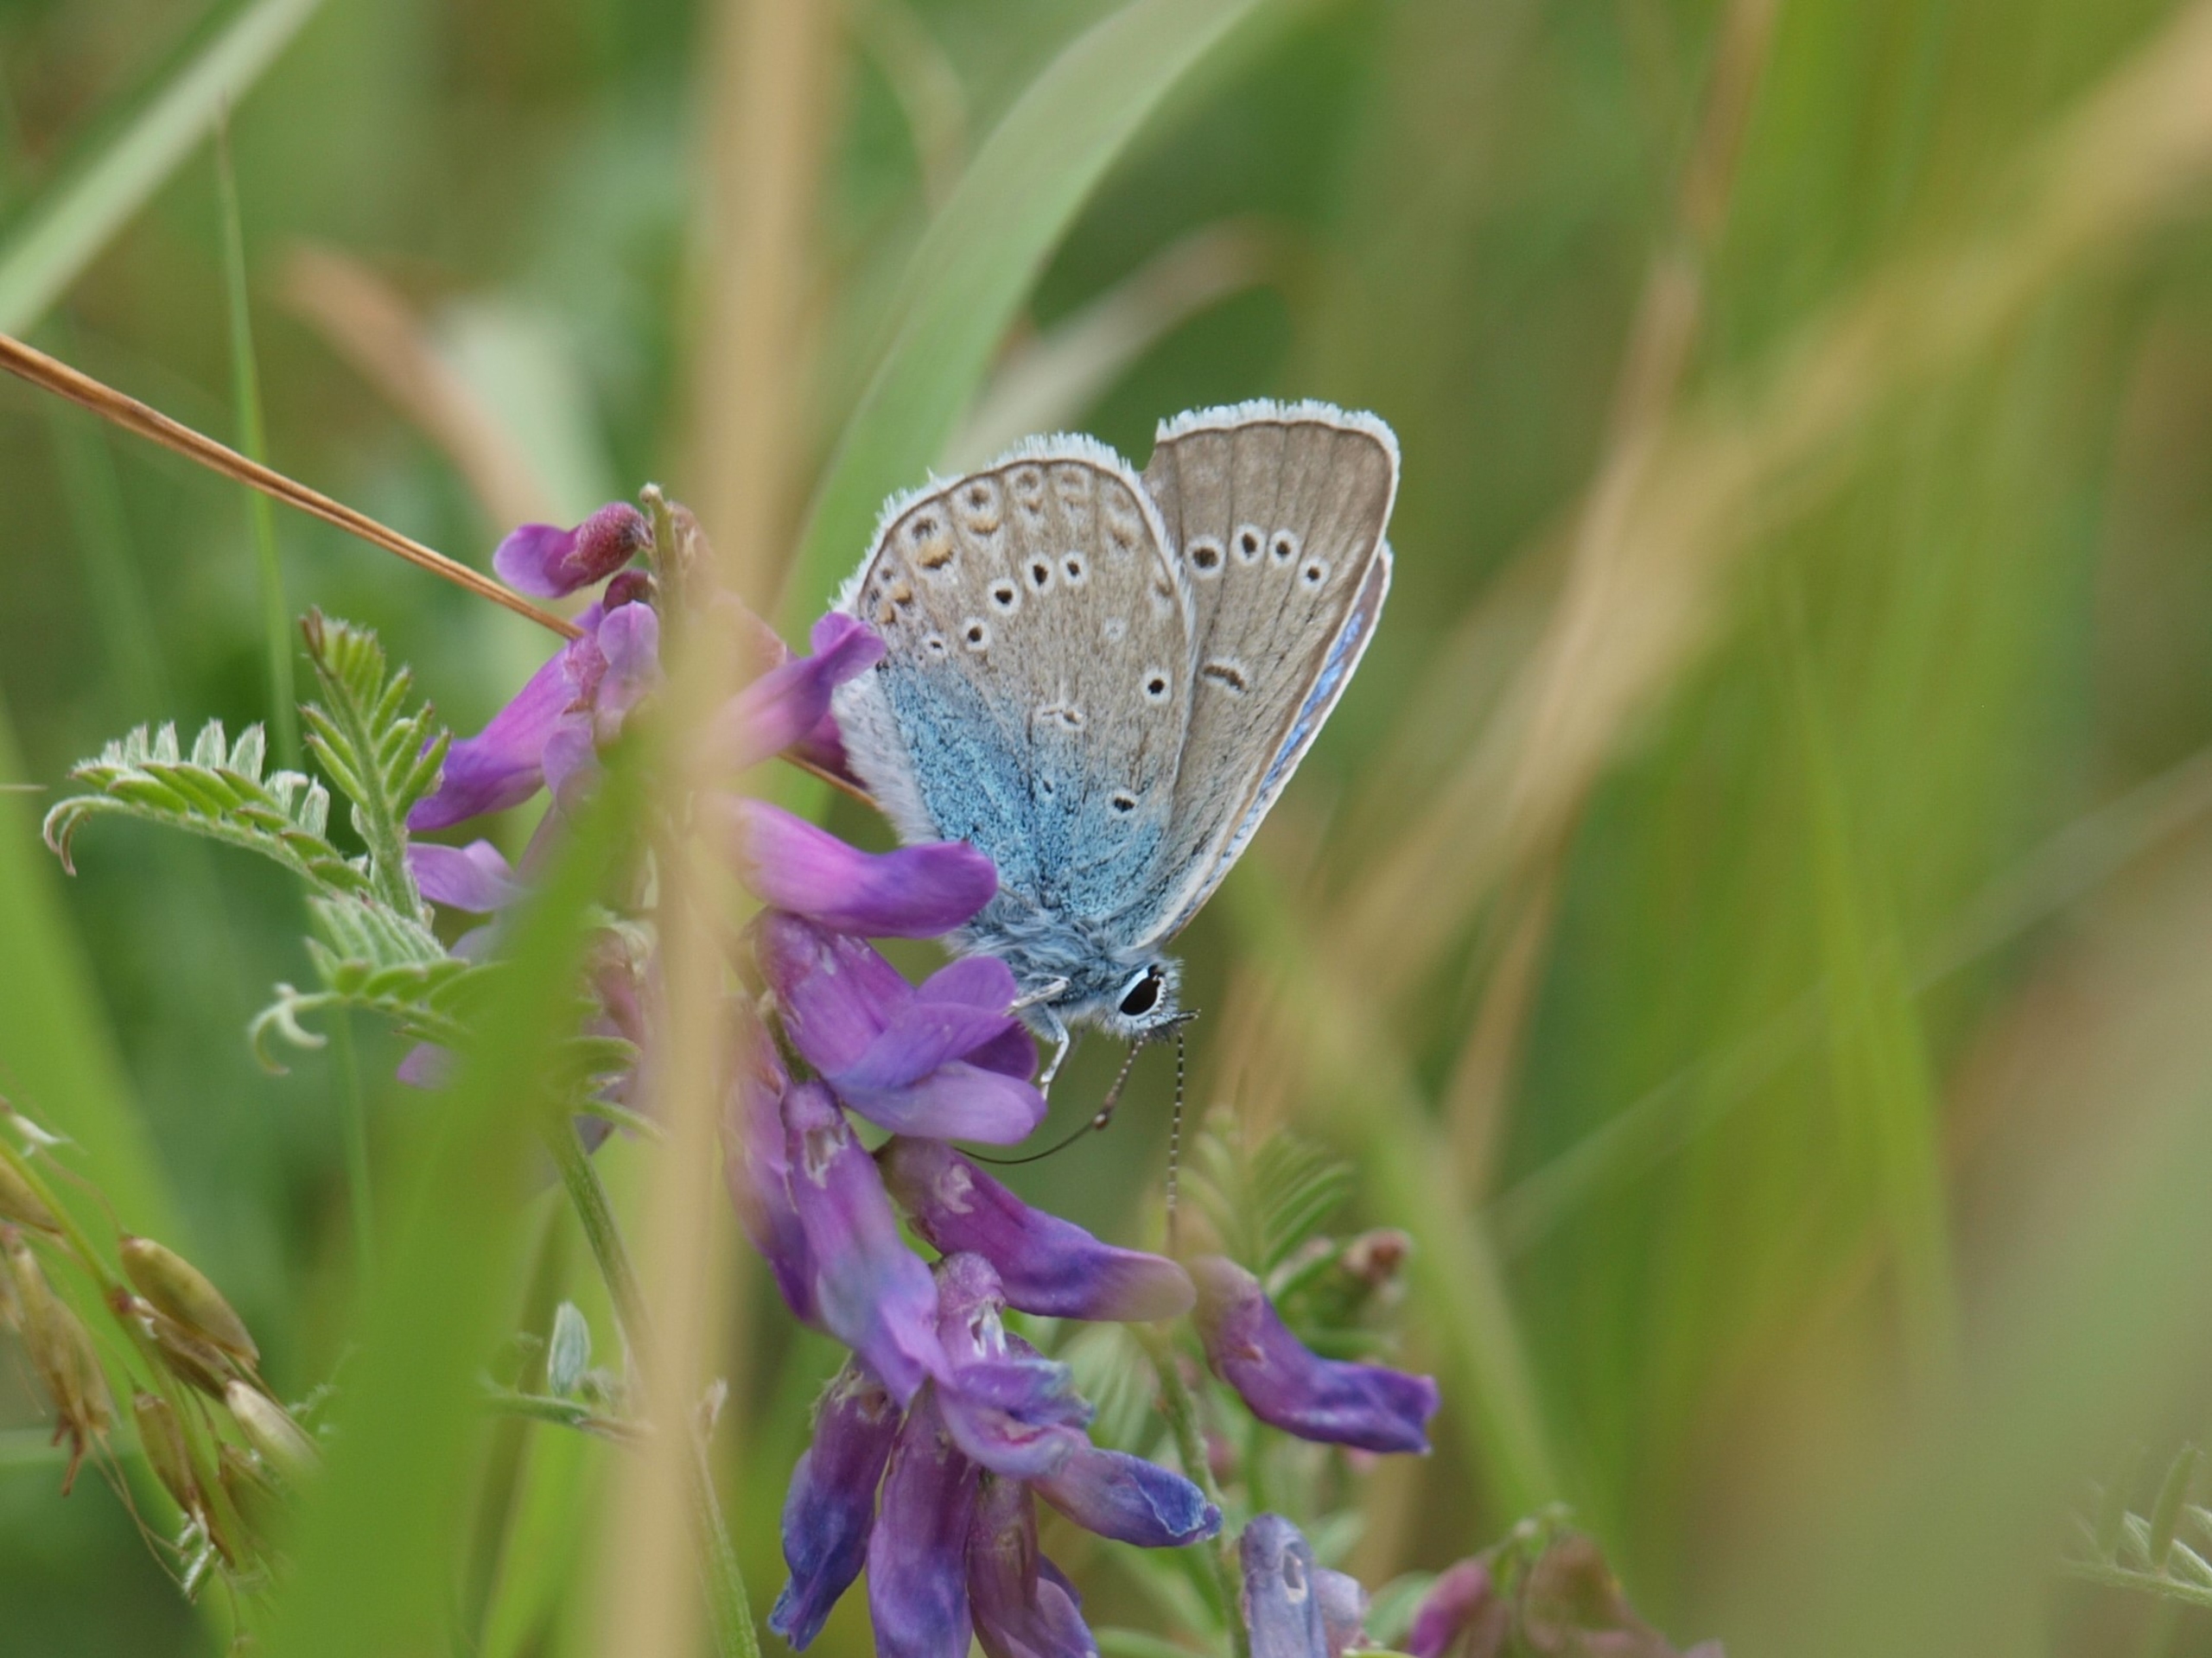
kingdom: Animalia
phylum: Arthropoda
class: Insecta
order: Lepidoptera
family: Lycaenidae
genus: Plebejus
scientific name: Plebejus amanda
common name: Isblåfugl
